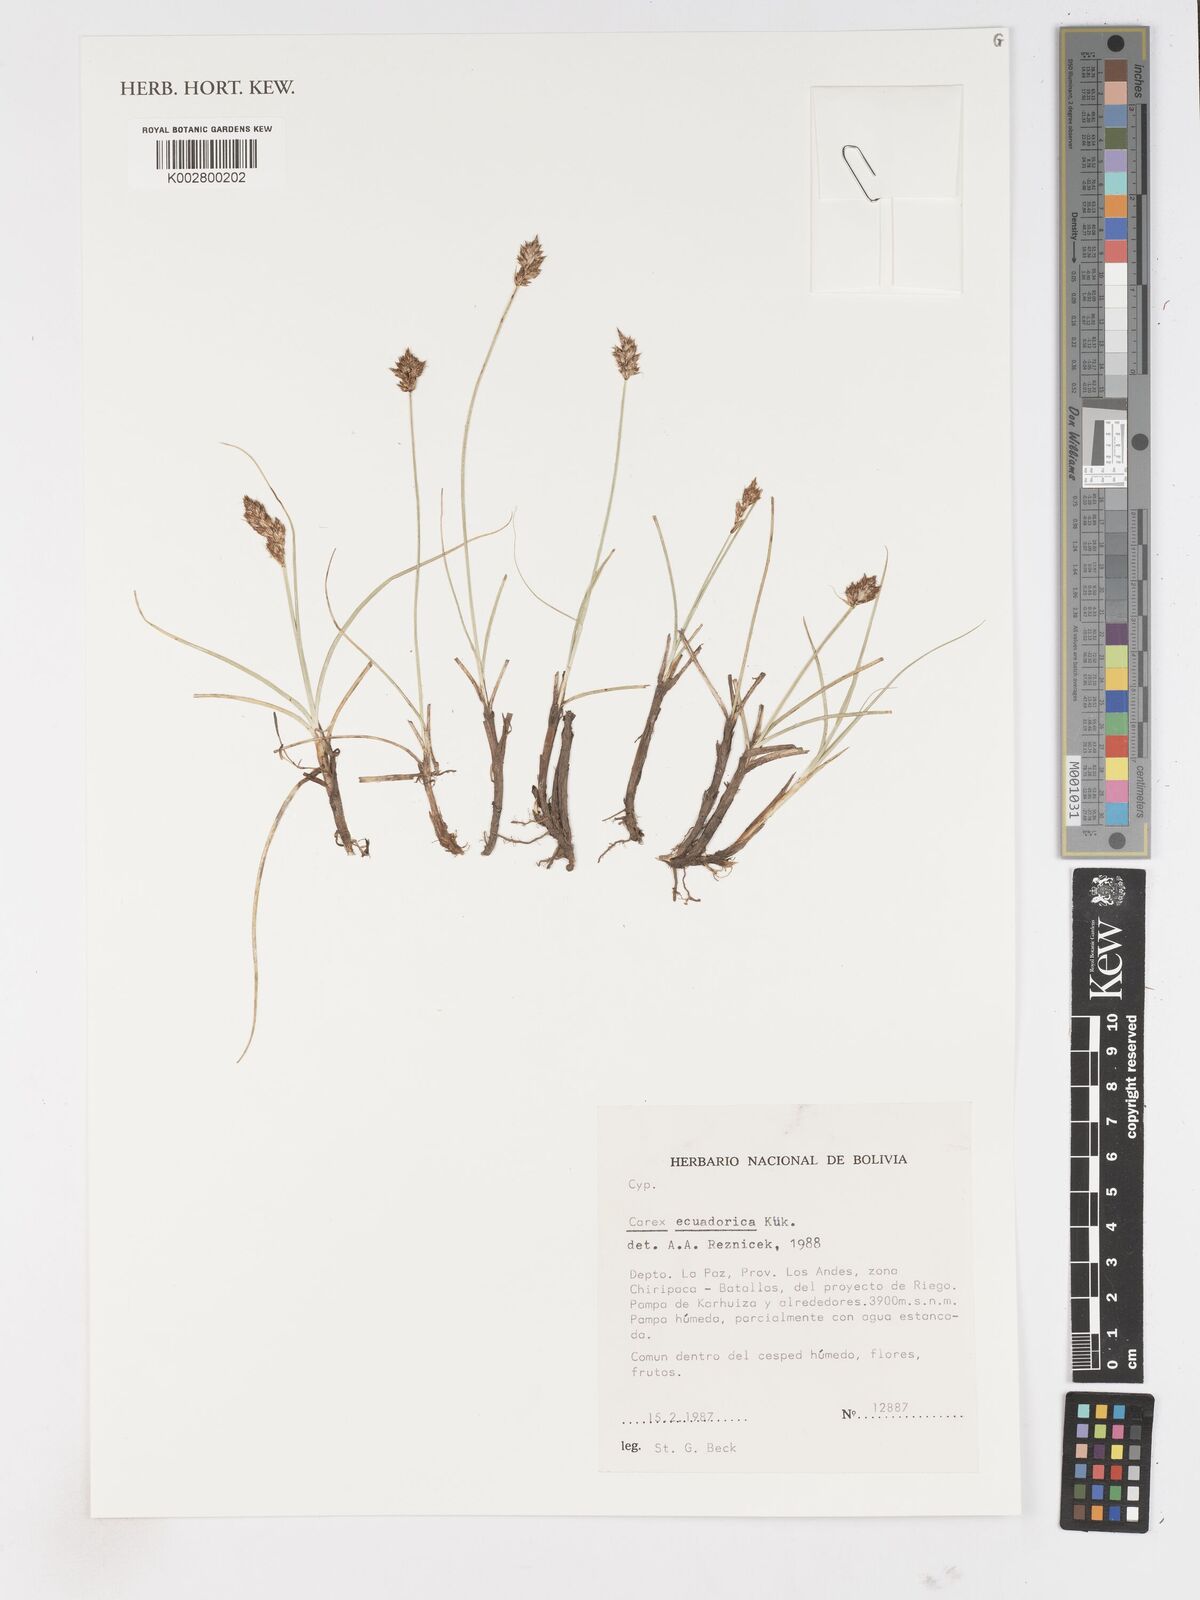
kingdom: Plantae
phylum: Tracheophyta
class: Liliopsida
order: Poales
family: Cyperaceae
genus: Carex
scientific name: Carex ecuadorica
